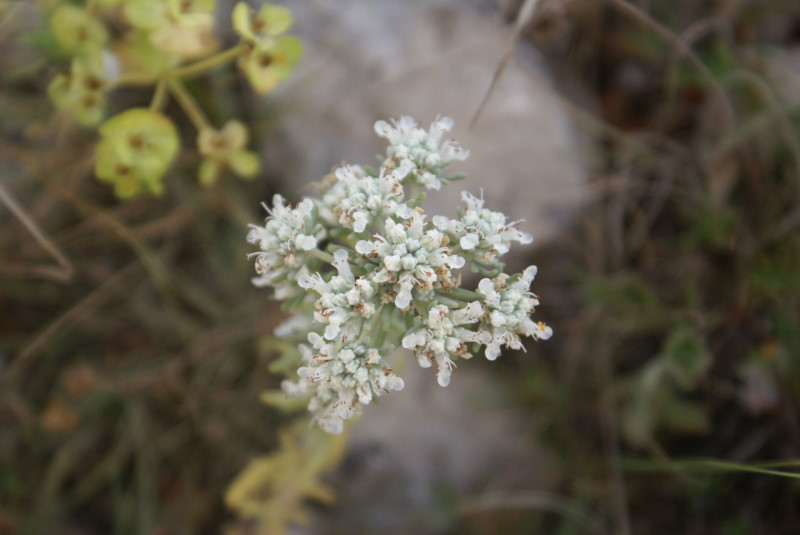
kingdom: Plantae
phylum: Tracheophyta
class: Magnoliopsida
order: Lamiales
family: Lamiaceae
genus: Teucrium
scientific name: Teucrium polium
